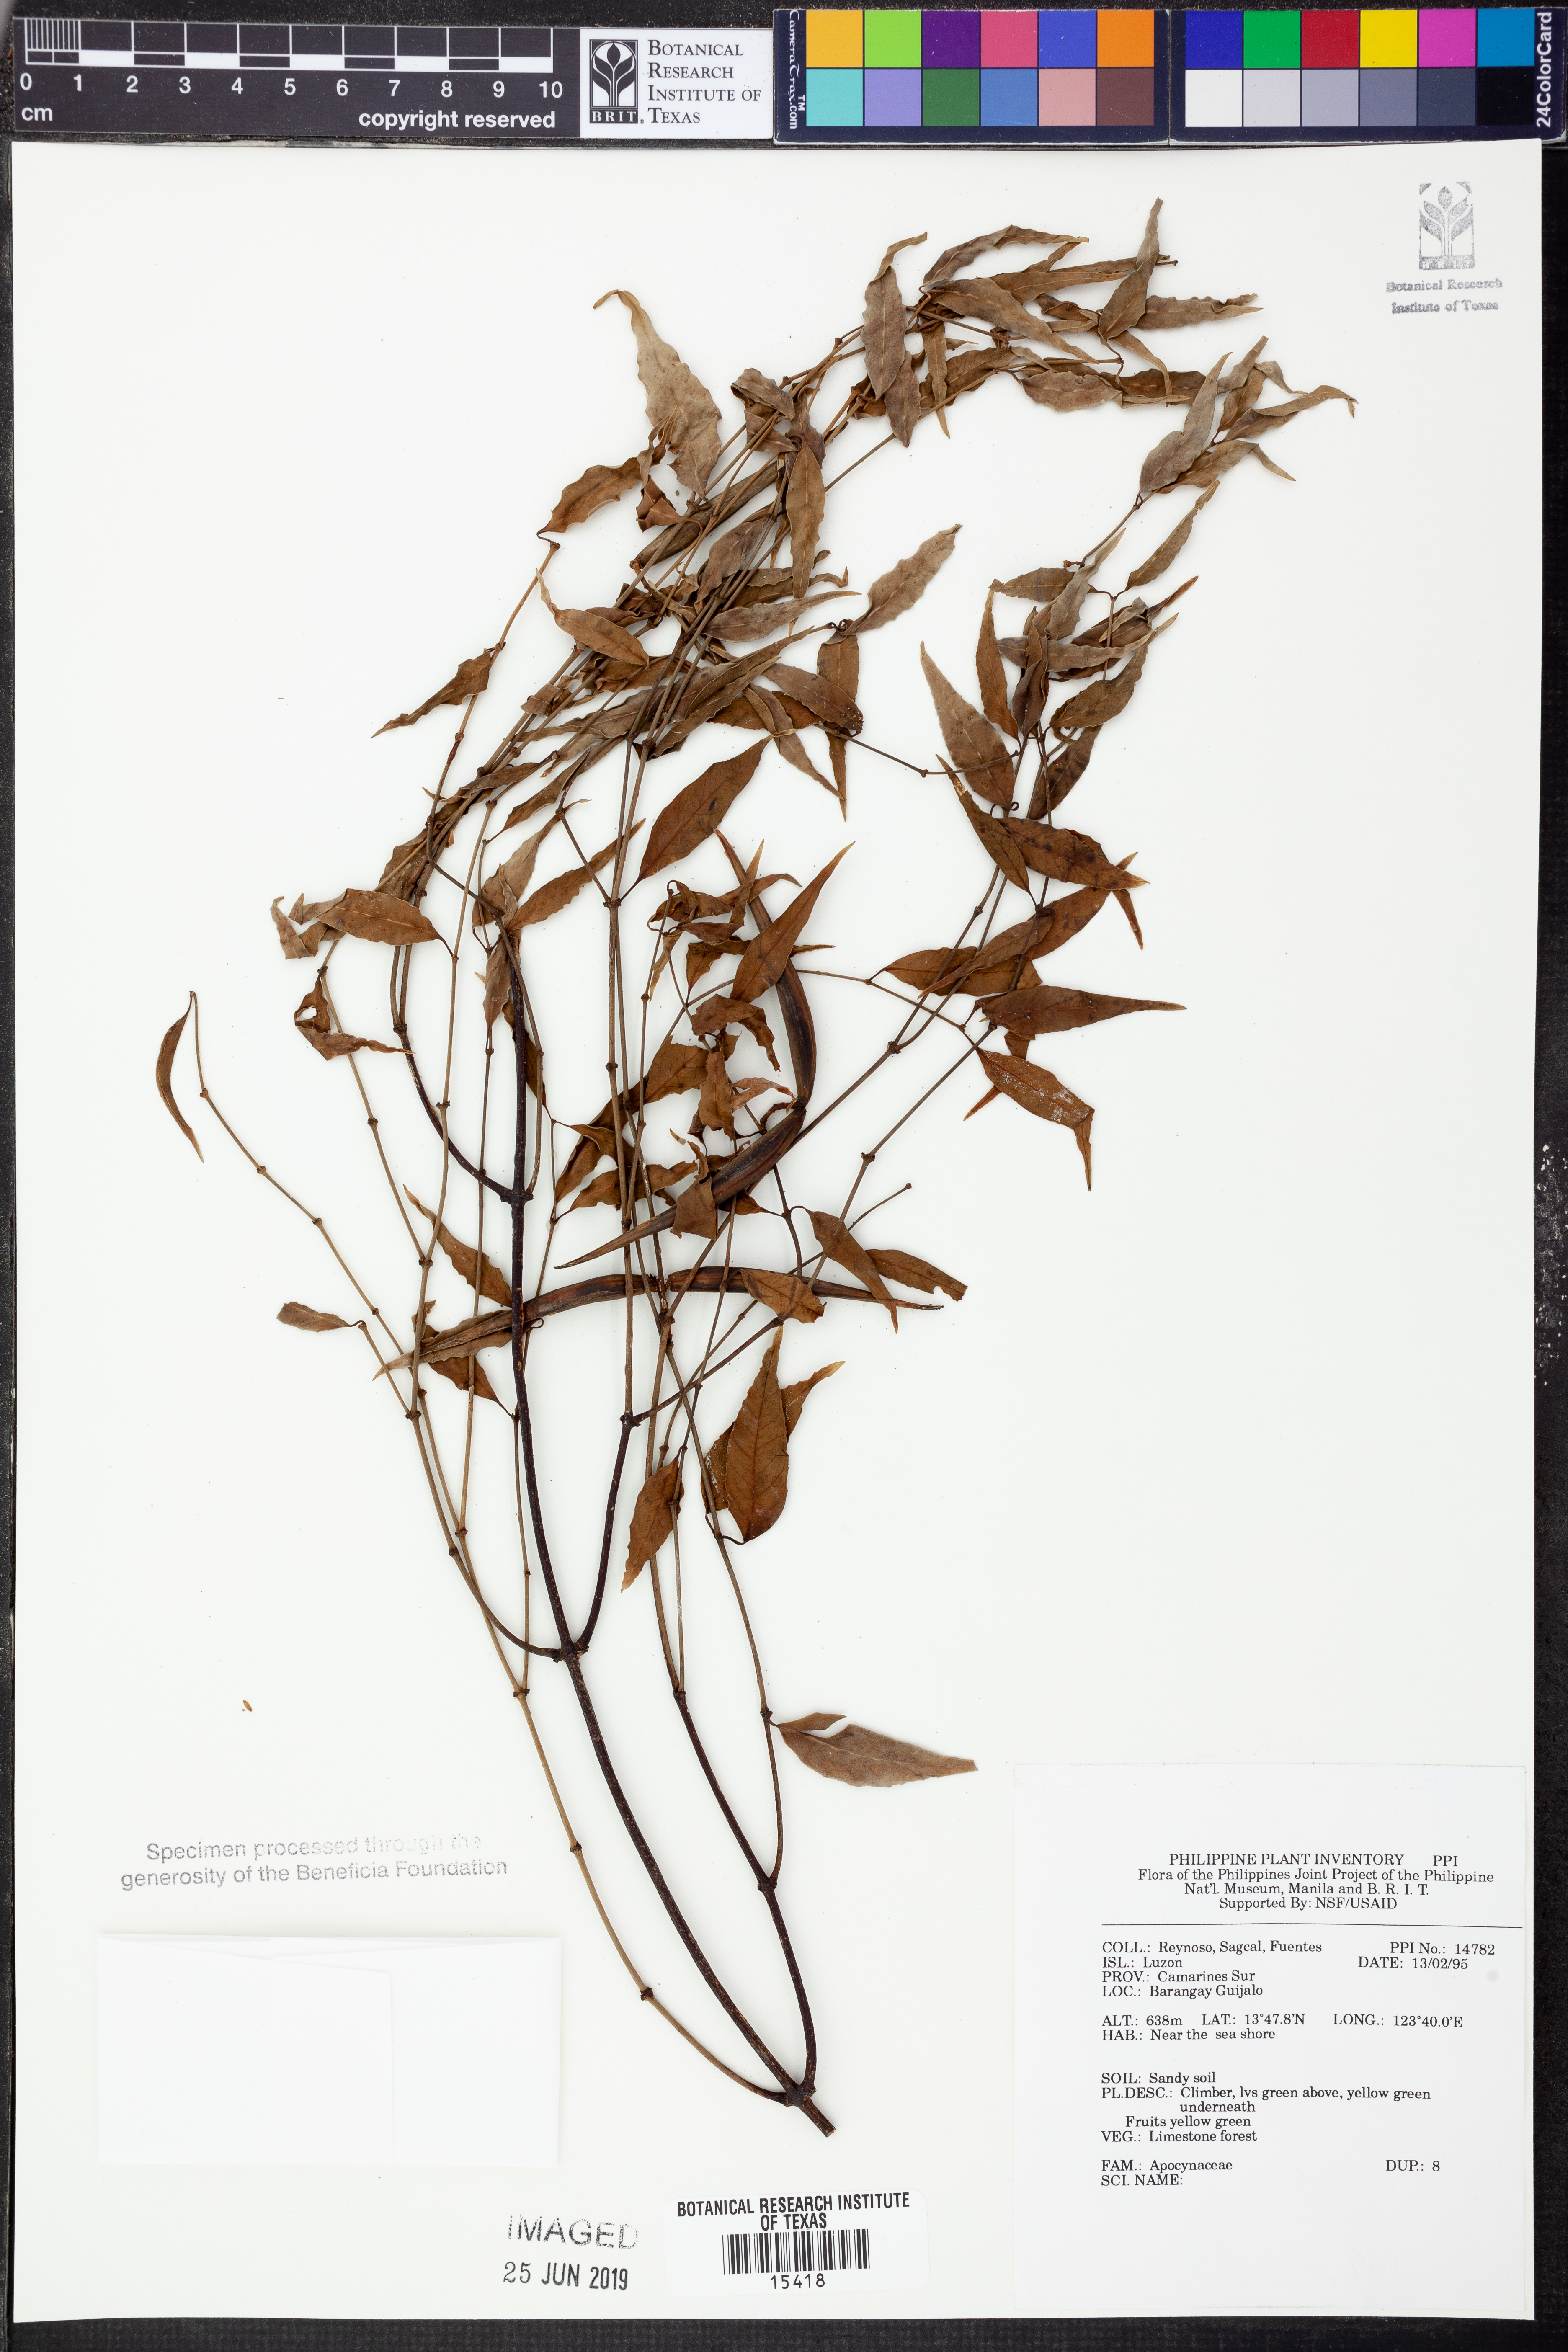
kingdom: Plantae
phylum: Tracheophyta
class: Magnoliopsida
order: Gentianales
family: Apocynaceae
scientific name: Apocynaceae
